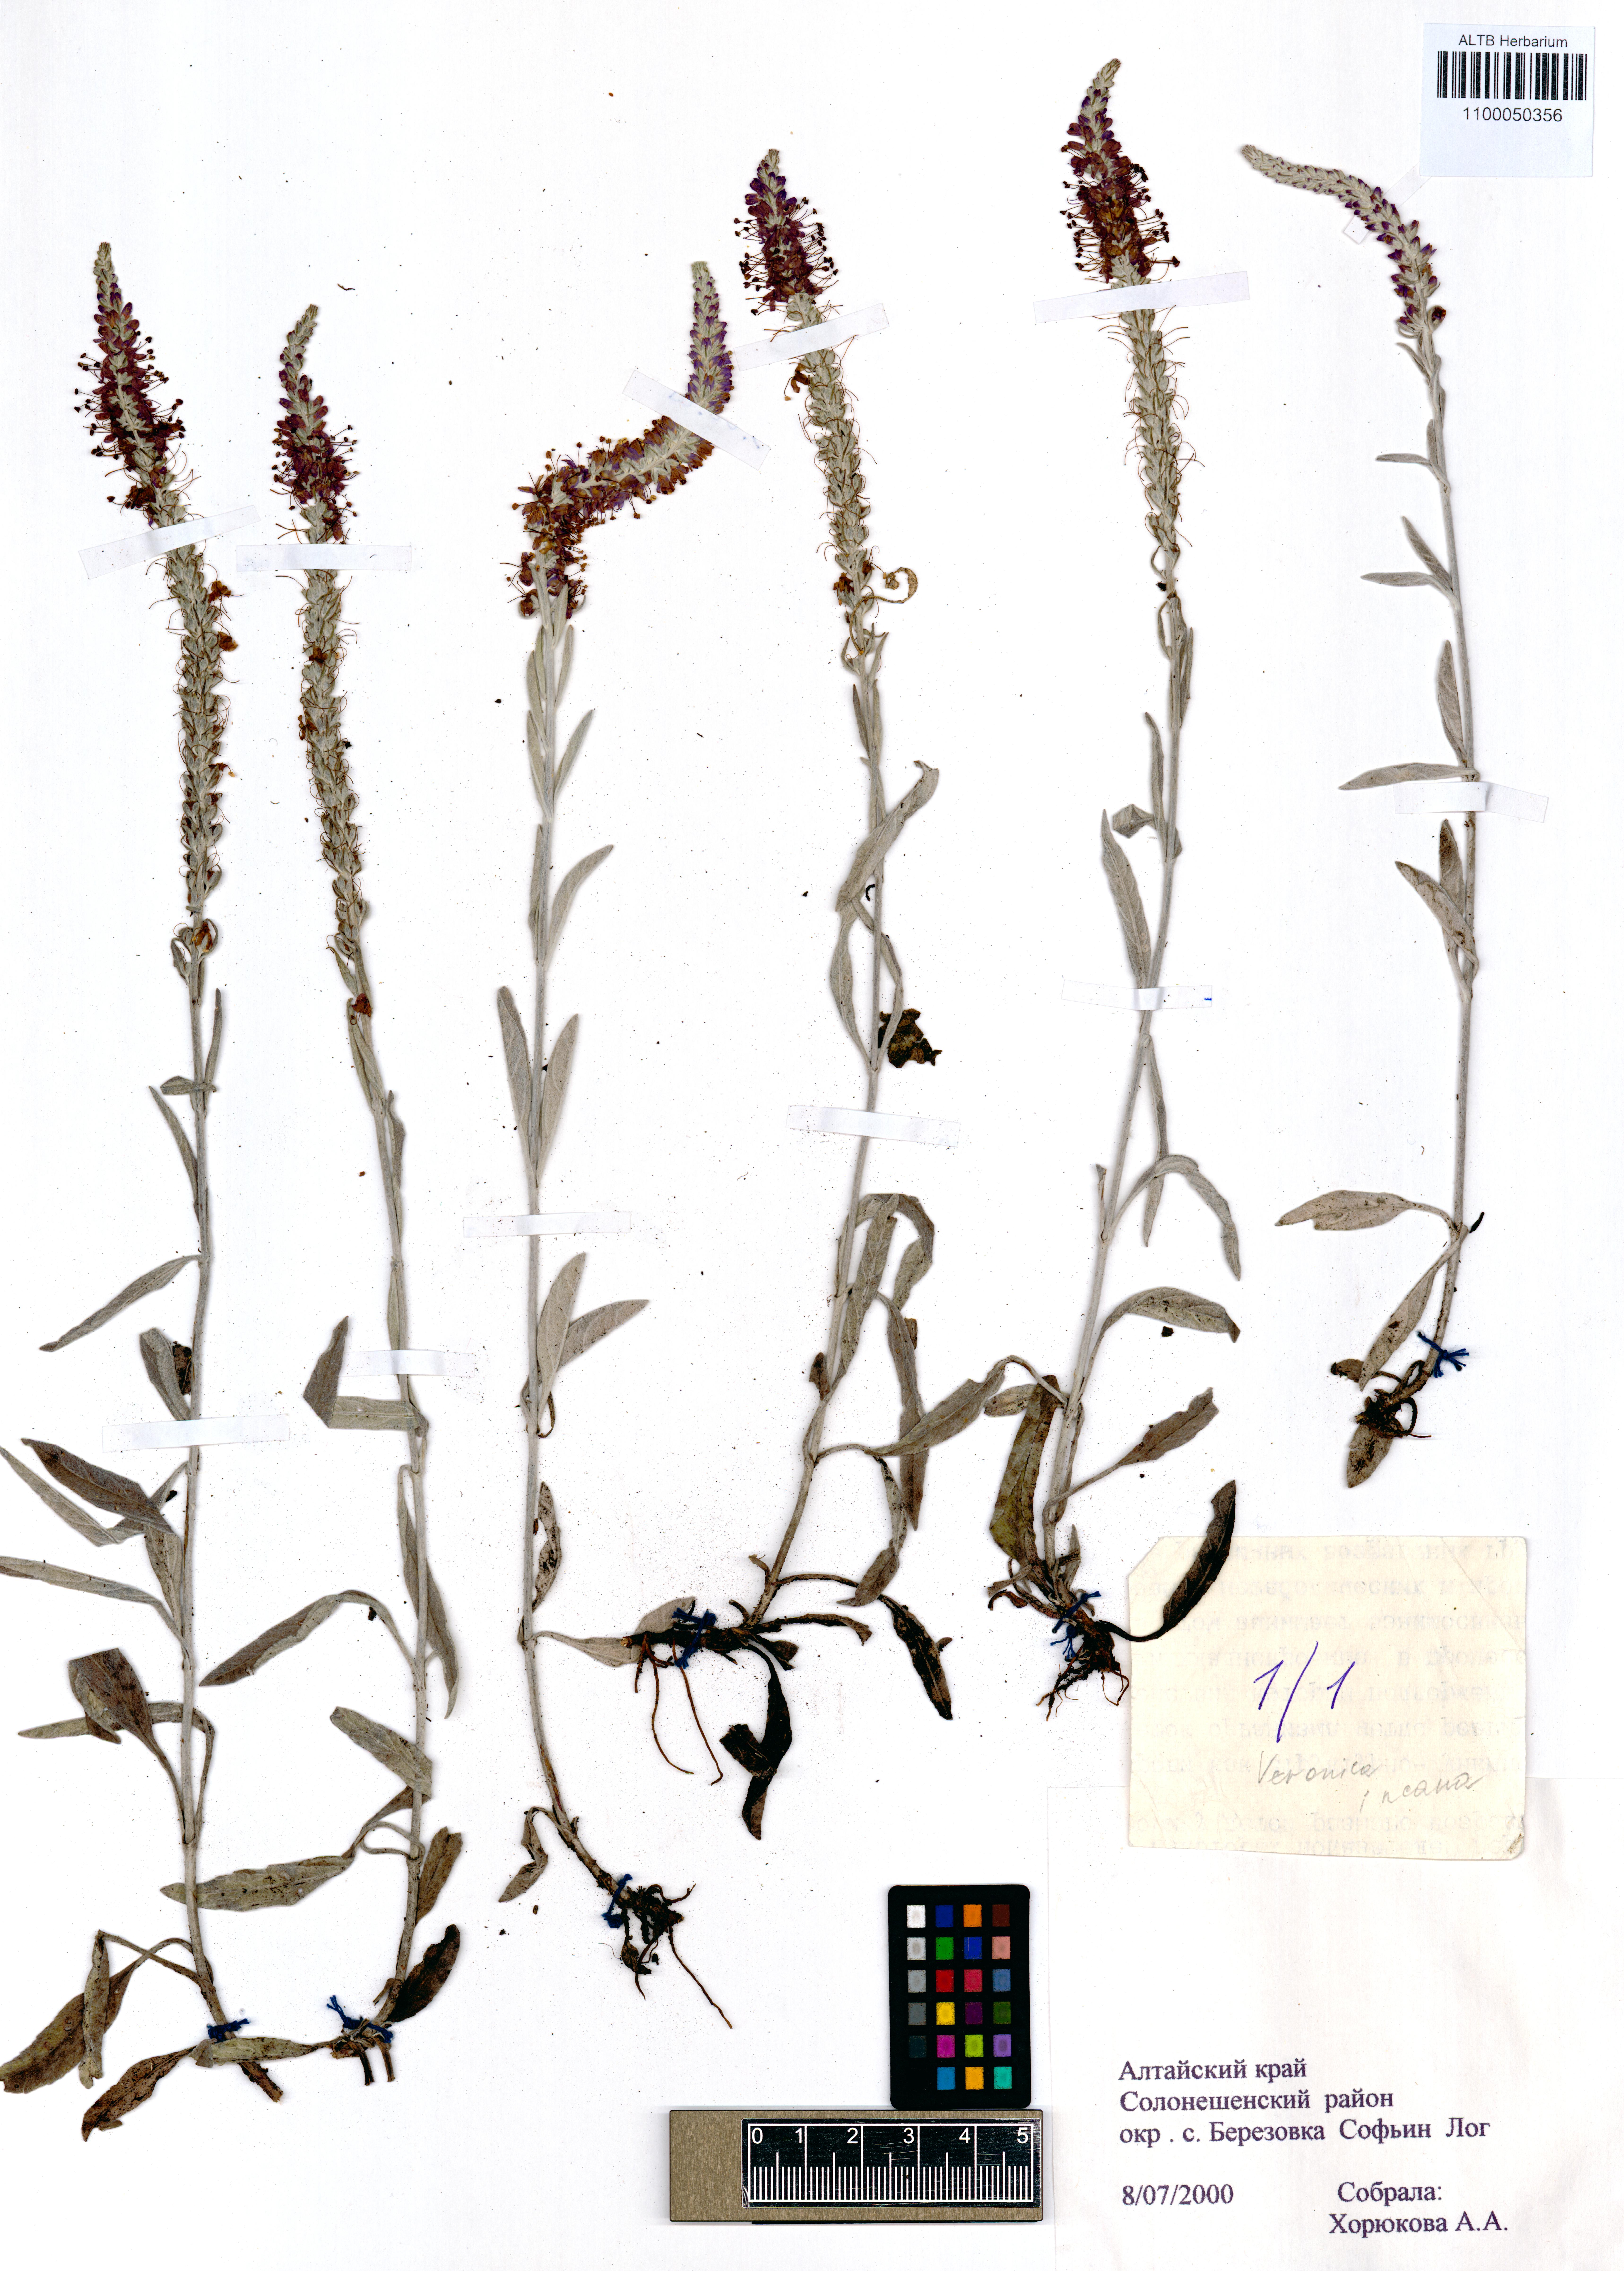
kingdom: Plantae
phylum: Tracheophyta
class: Magnoliopsida
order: Lamiales
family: Plantaginaceae
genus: Veronica
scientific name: Veronica incana
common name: Silver speedwell
